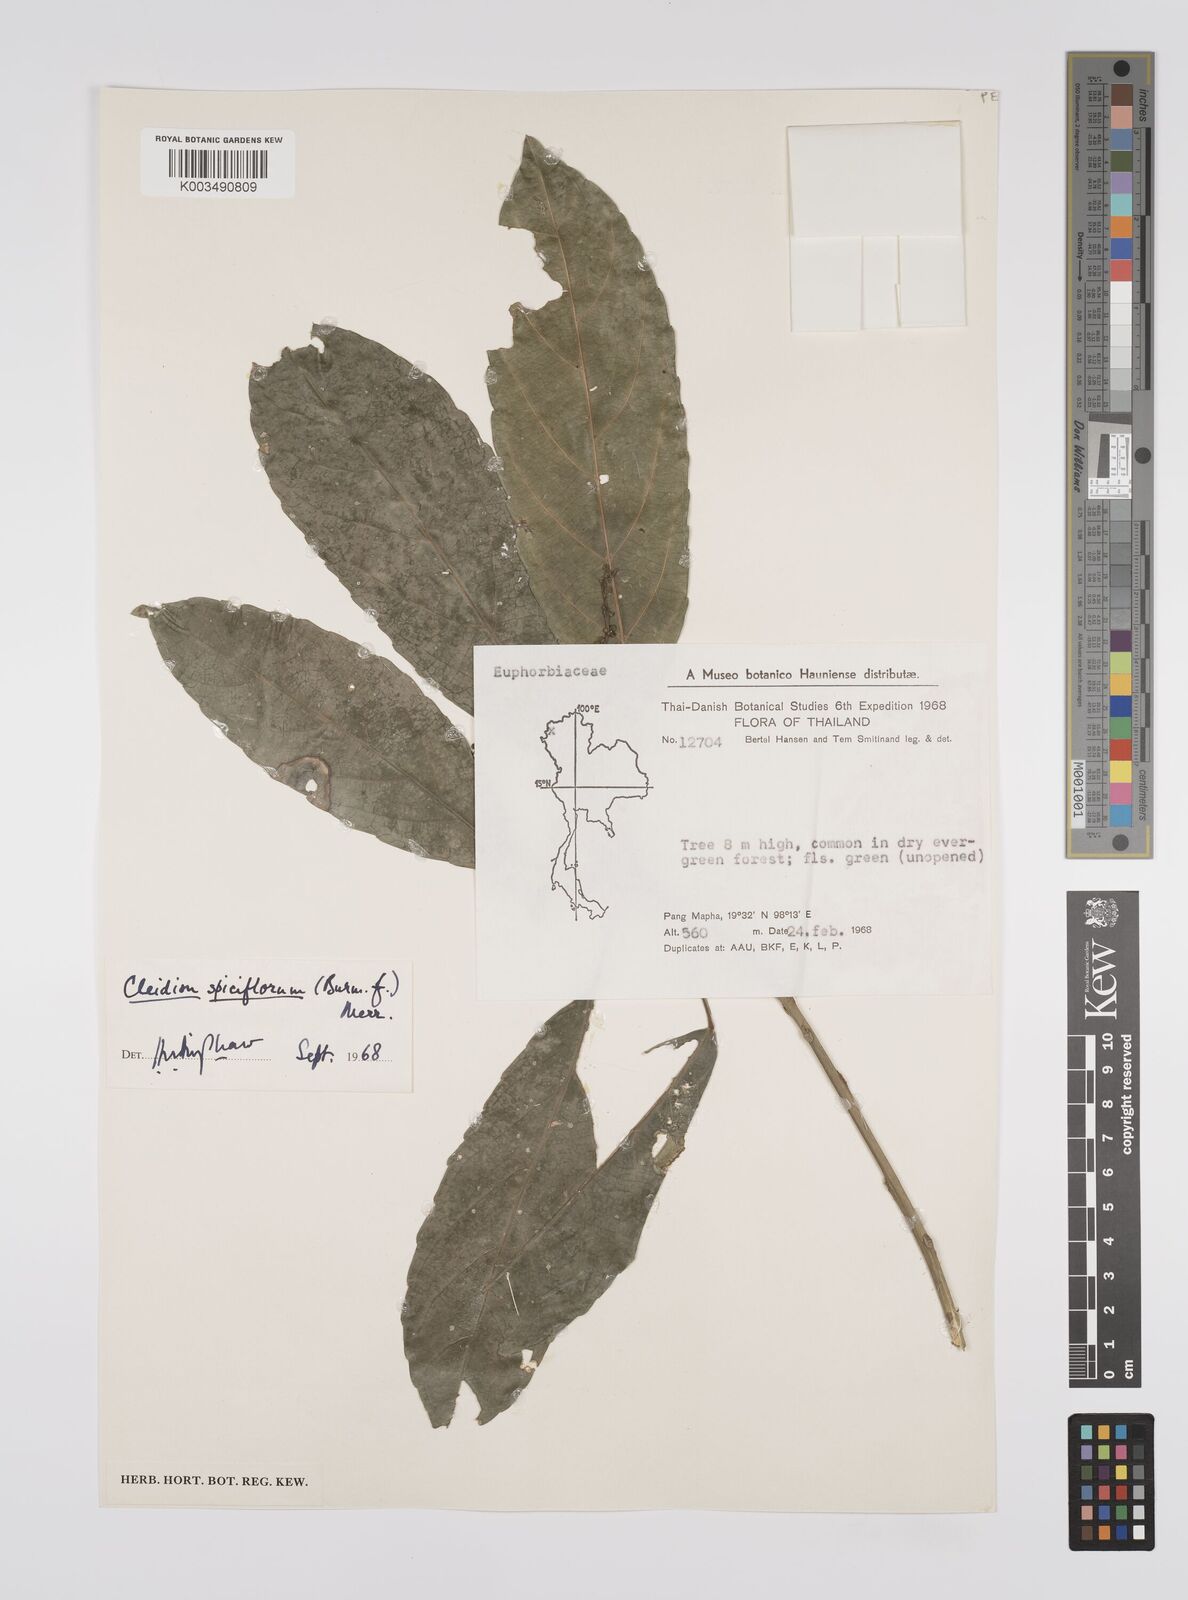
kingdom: Plantae
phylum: Tracheophyta
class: Magnoliopsida
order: Malpighiales
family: Euphorbiaceae
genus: Acalypha
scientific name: Acalypha spiciflora
